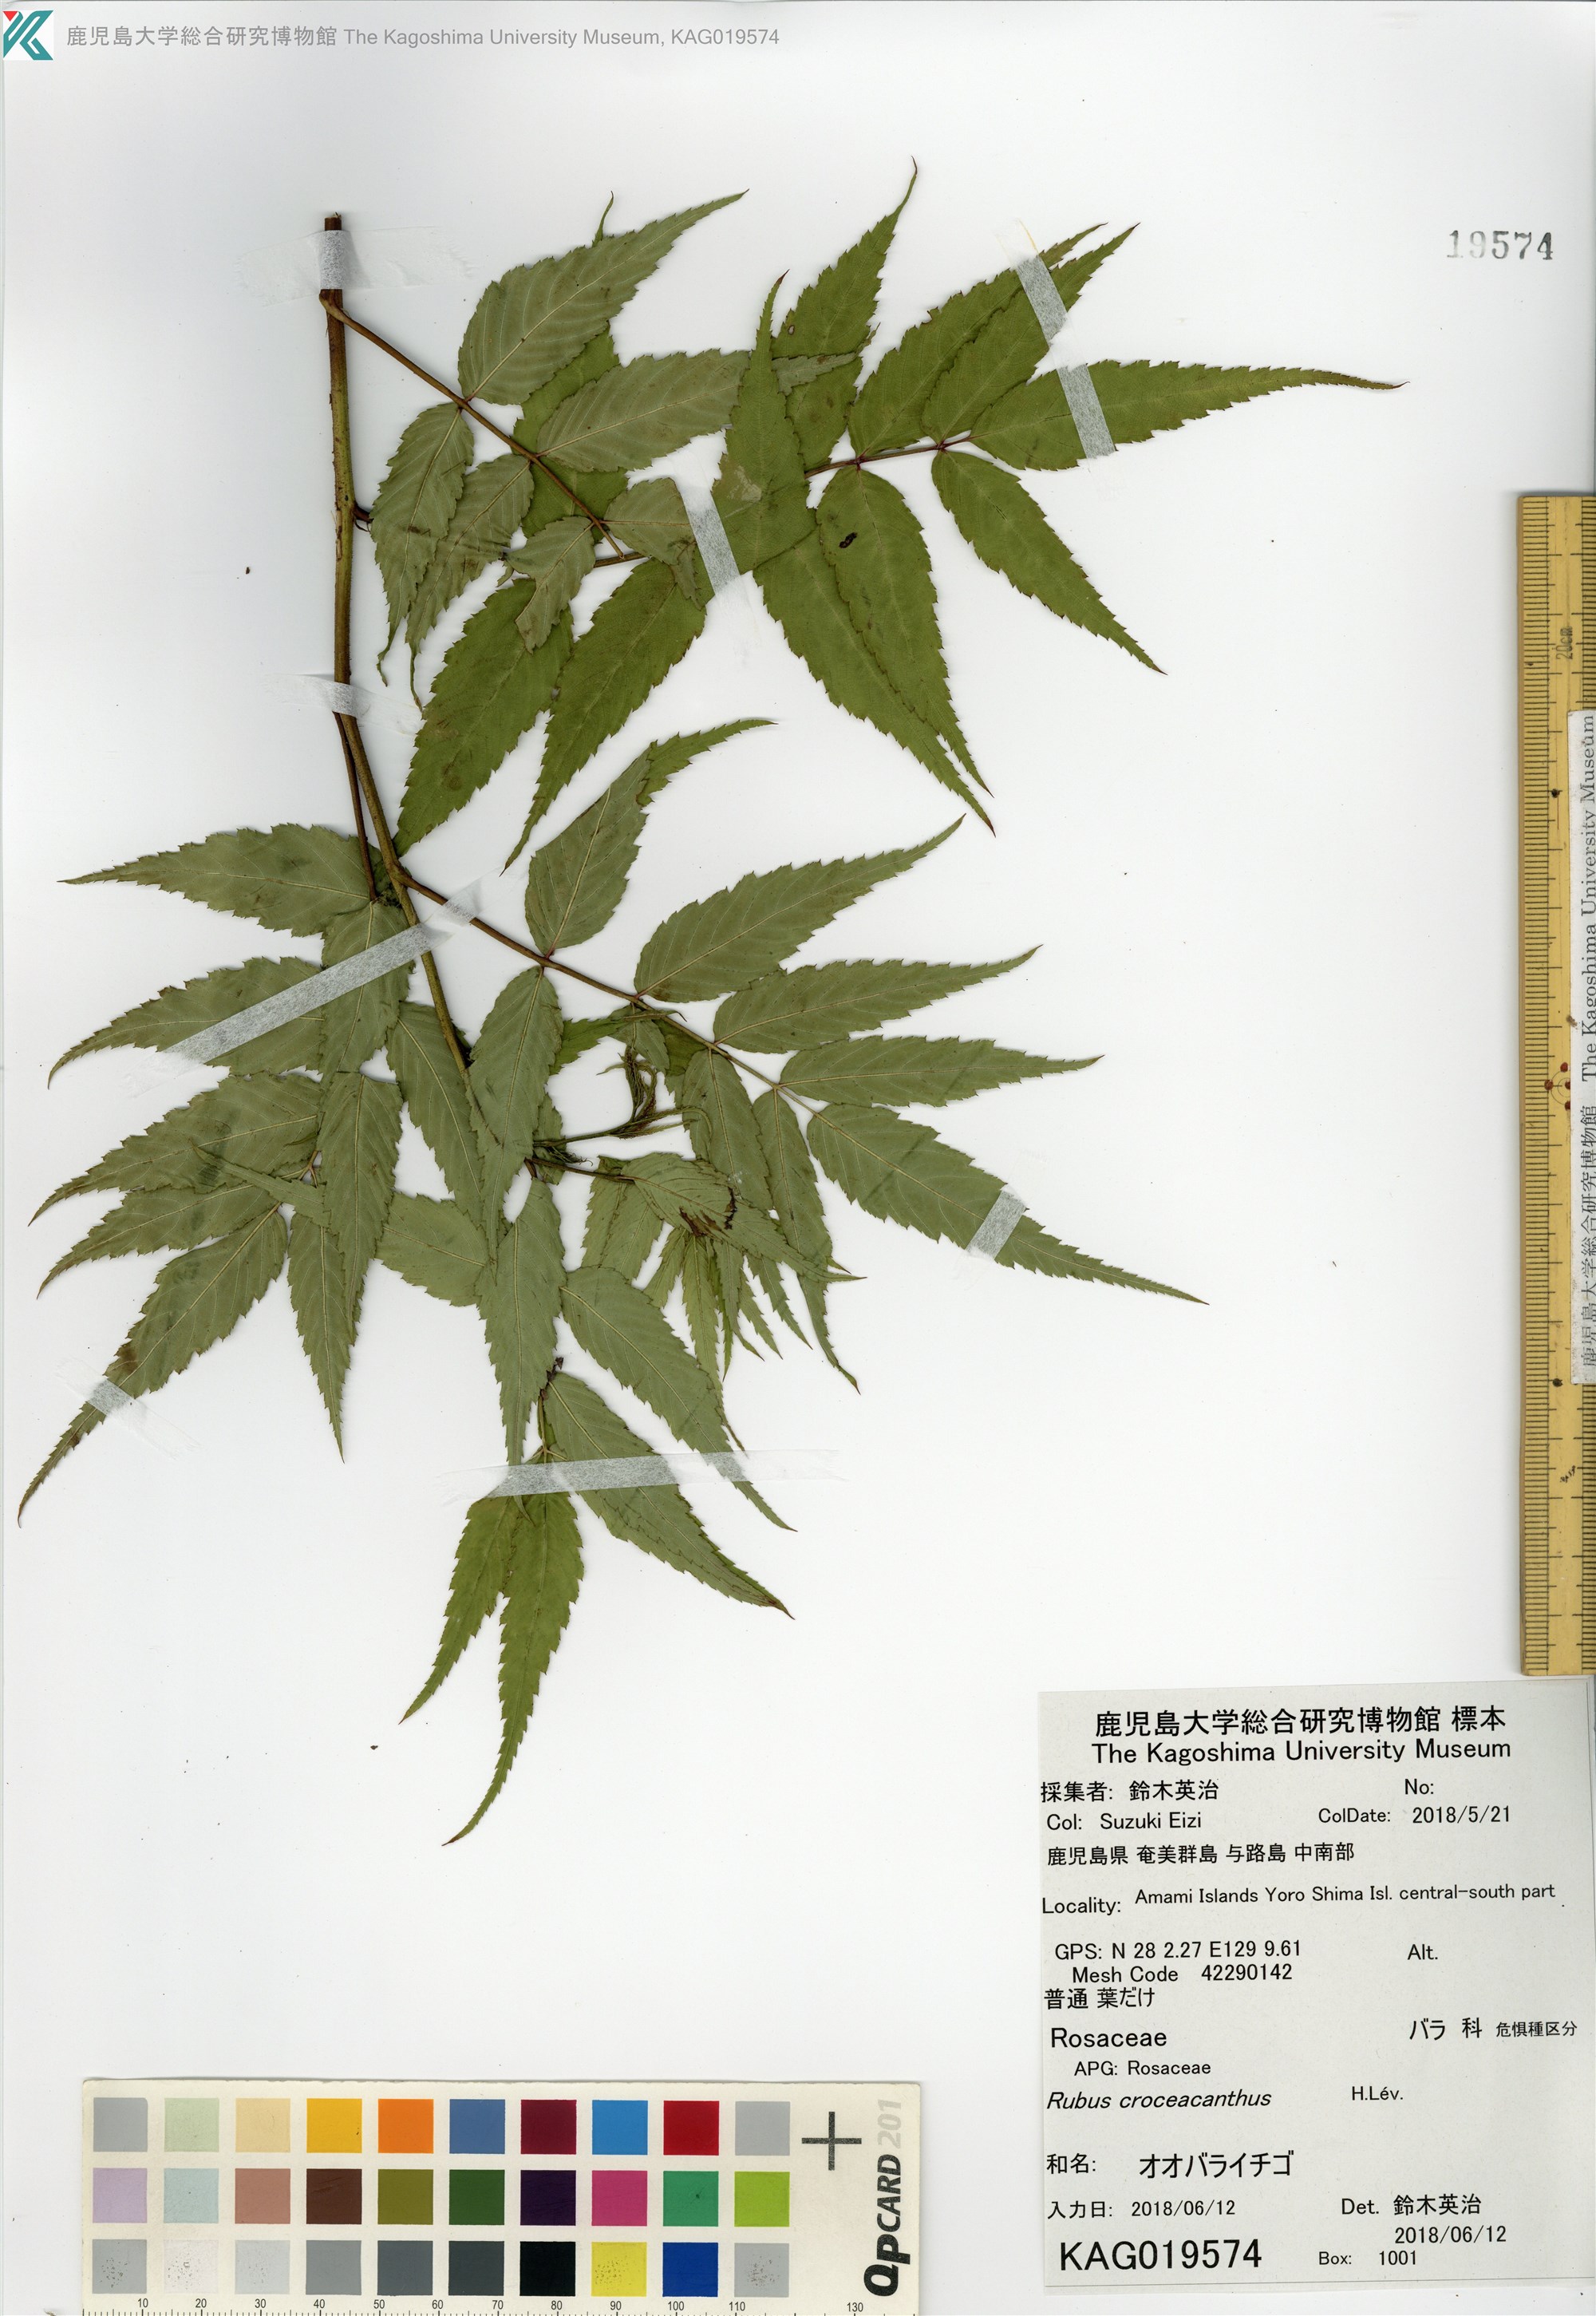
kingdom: Plantae
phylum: Tracheophyta
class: Magnoliopsida
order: Rosales
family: Rosaceae
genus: Rubus
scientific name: Rubus okinawensis
